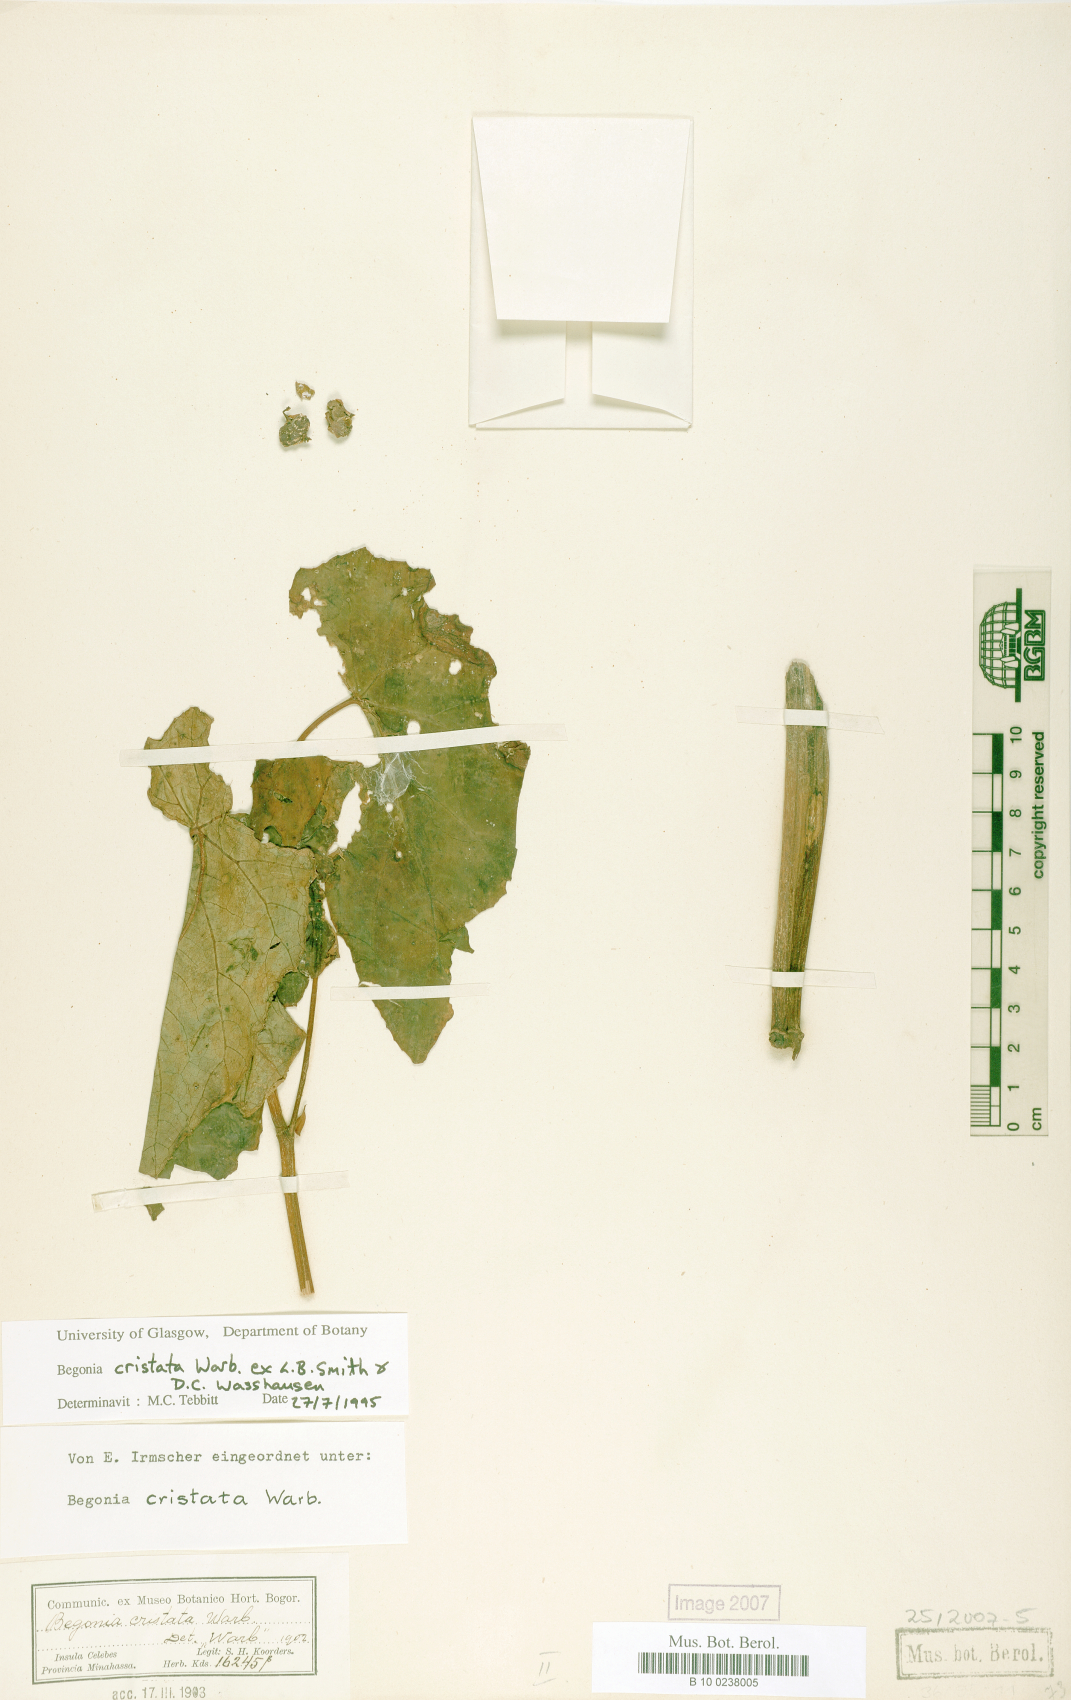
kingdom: Plantae
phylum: Tracheophyta
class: Magnoliopsida
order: Cucurbitales
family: Begoniaceae
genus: Begonia
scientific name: Begonia aptera
